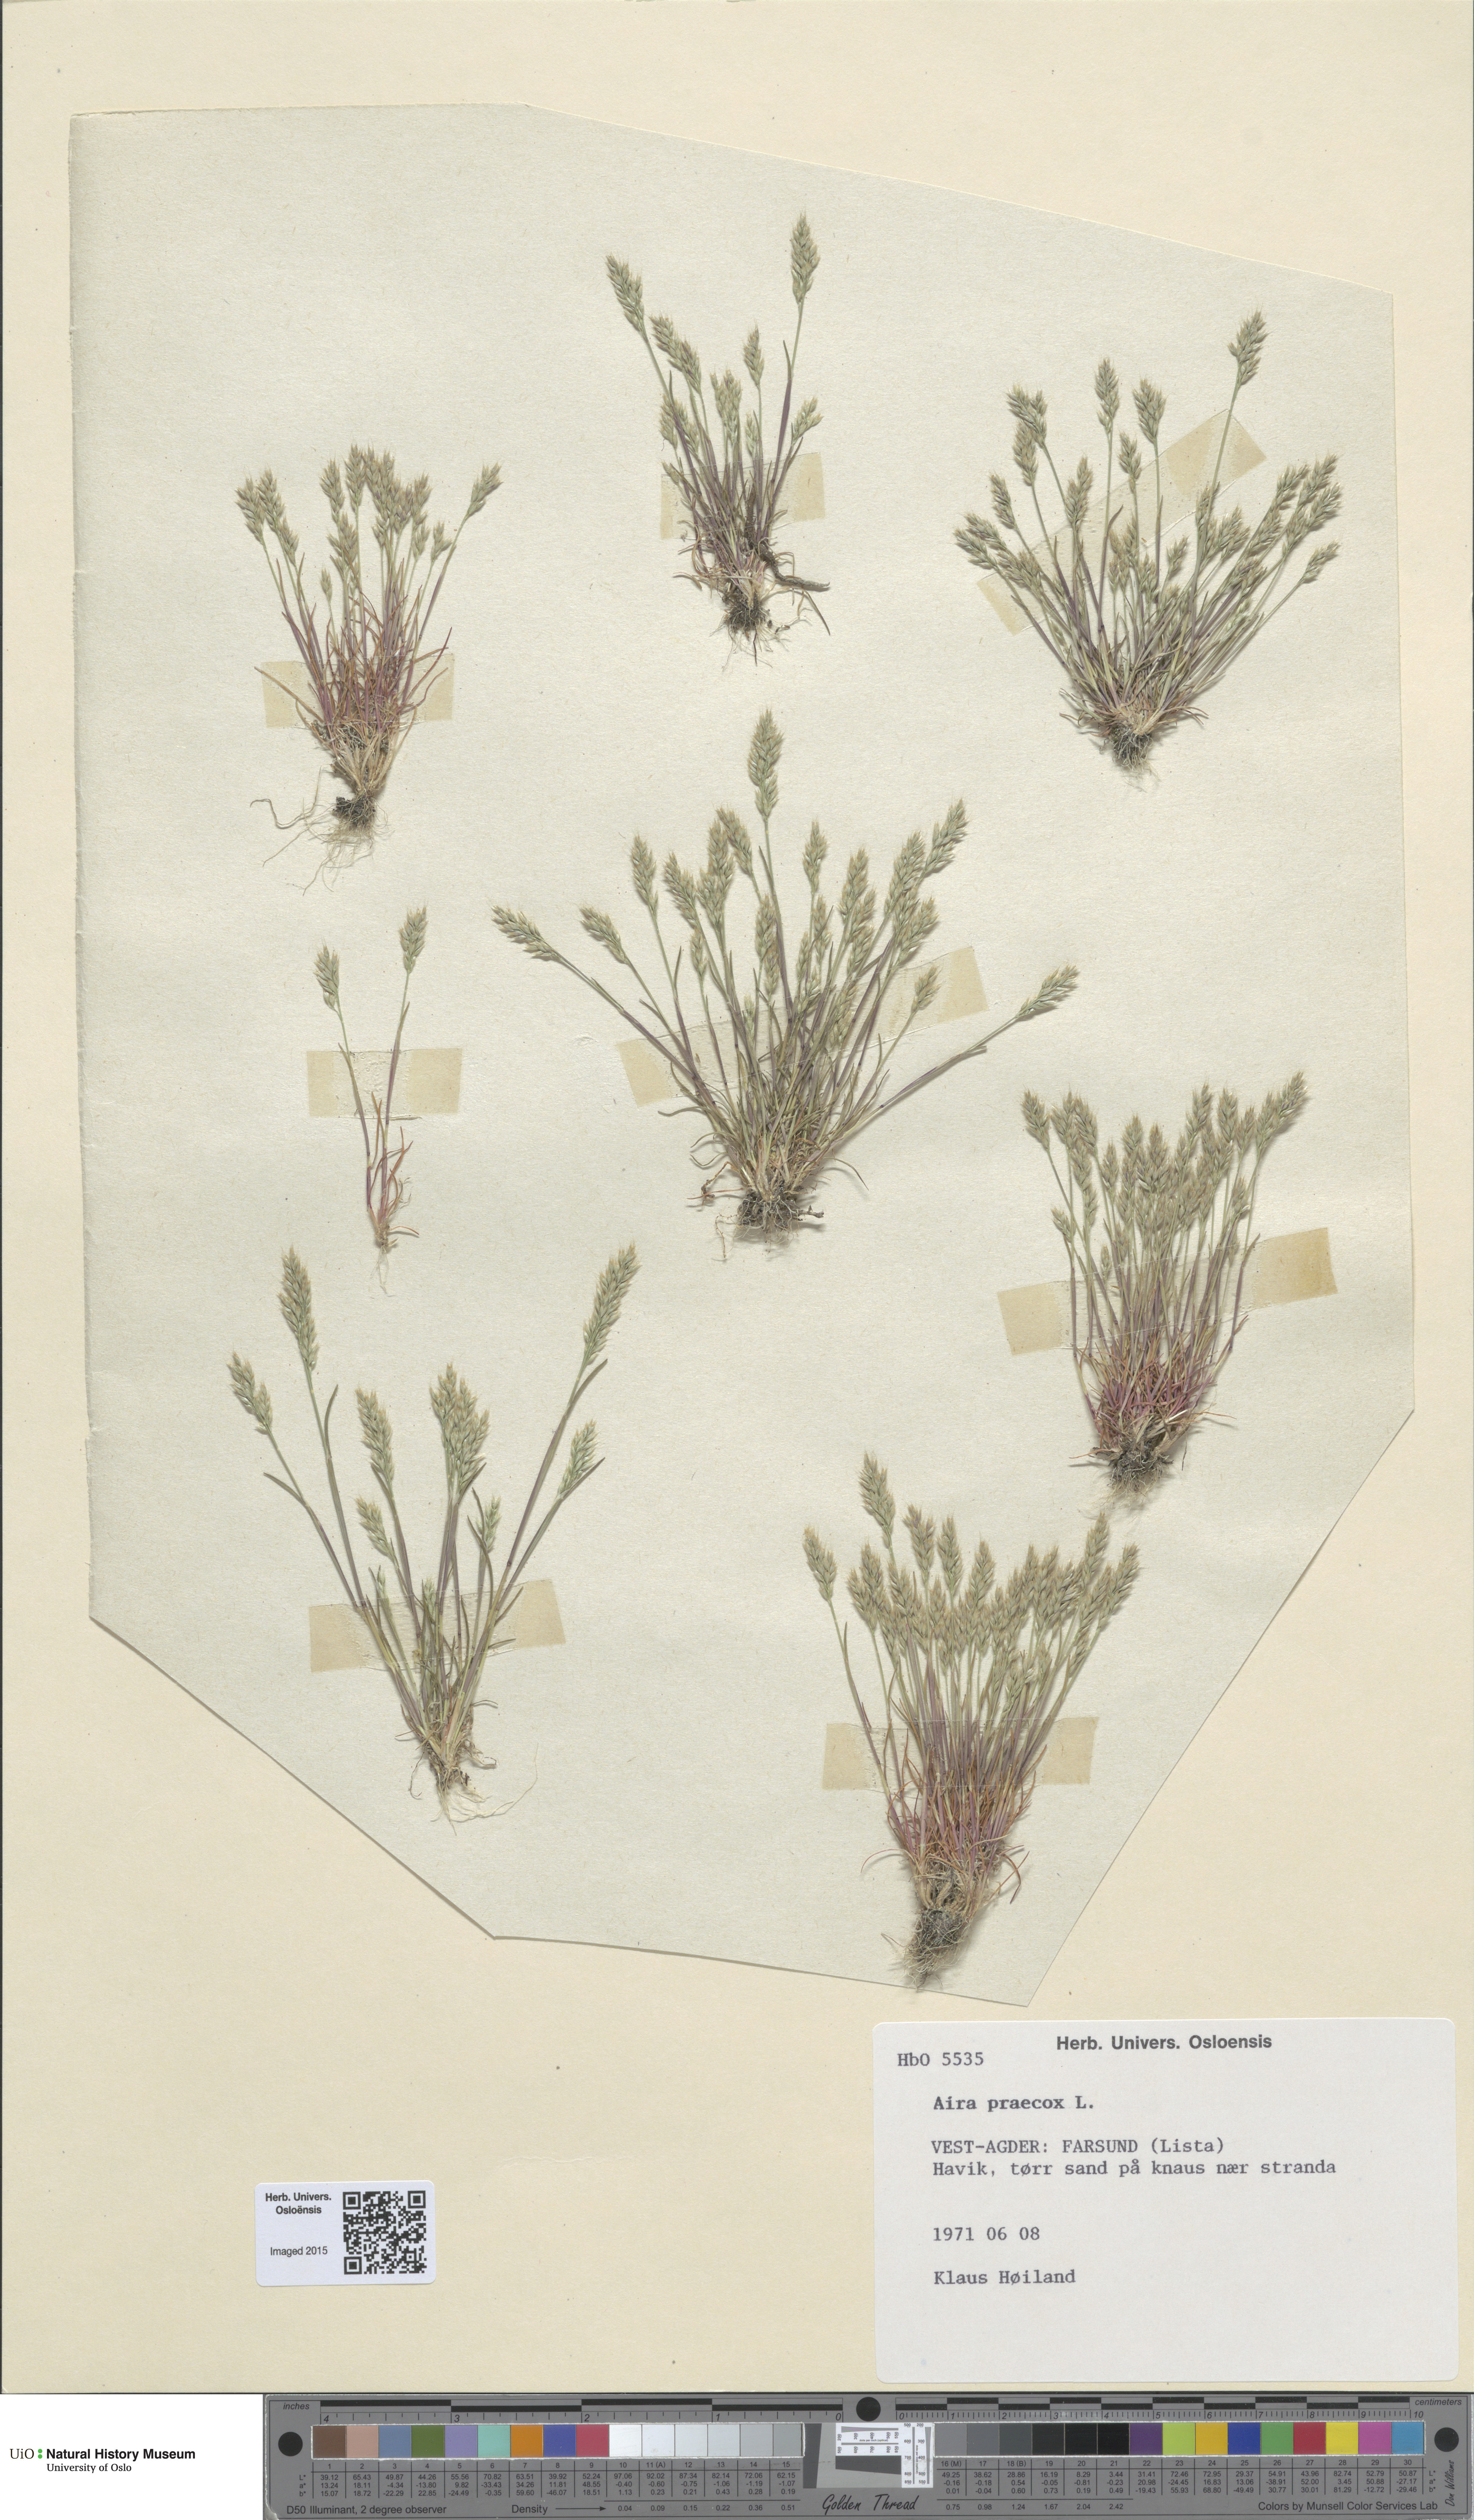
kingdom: Plantae
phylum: Tracheophyta
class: Liliopsida
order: Poales
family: Poaceae
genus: Aira
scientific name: Aira praecox
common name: Early hair-grass
